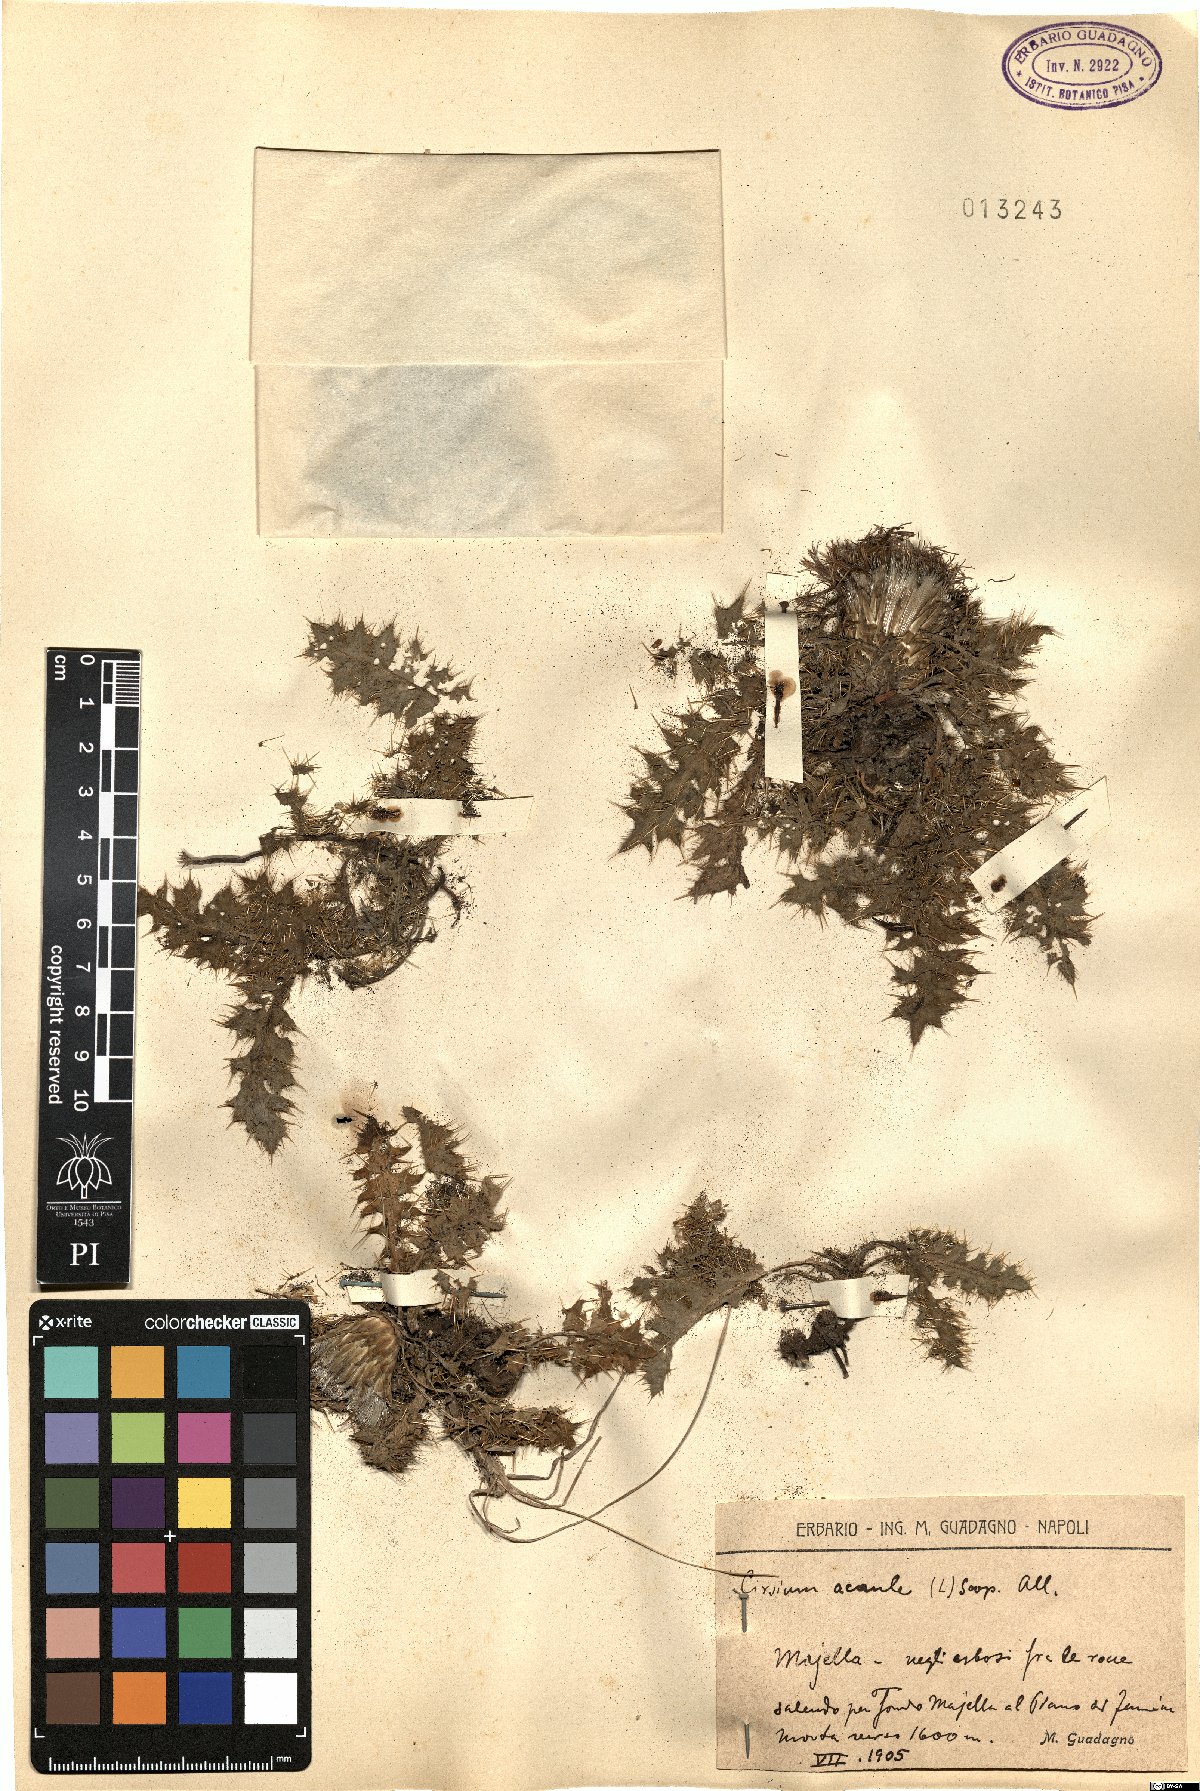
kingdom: Plantae
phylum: Tracheophyta
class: Magnoliopsida
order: Asterales
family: Asteraceae
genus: Cirsium
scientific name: Cirsium acaule
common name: Dwarf thistle
